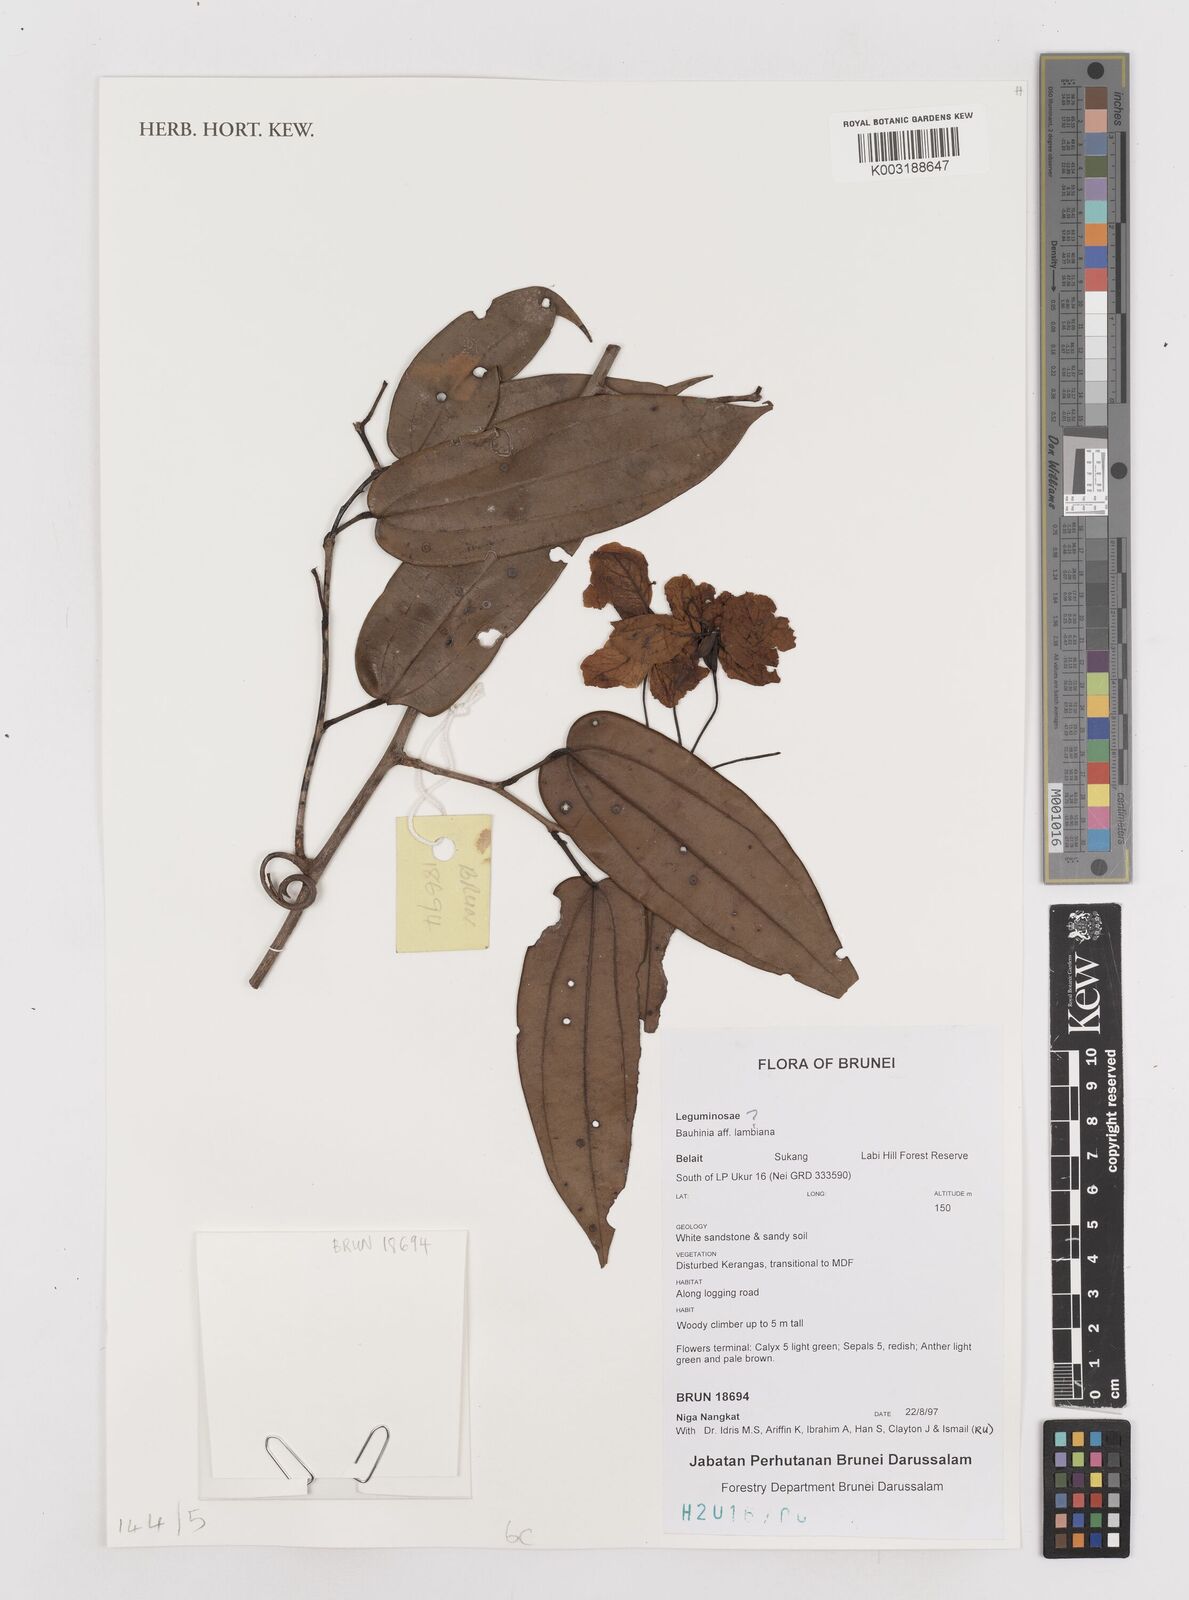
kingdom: Plantae
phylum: Tracheophyta
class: Magnoliopsida
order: Fabales
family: Fabaceae
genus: Bauhinia
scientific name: Bauhinia
